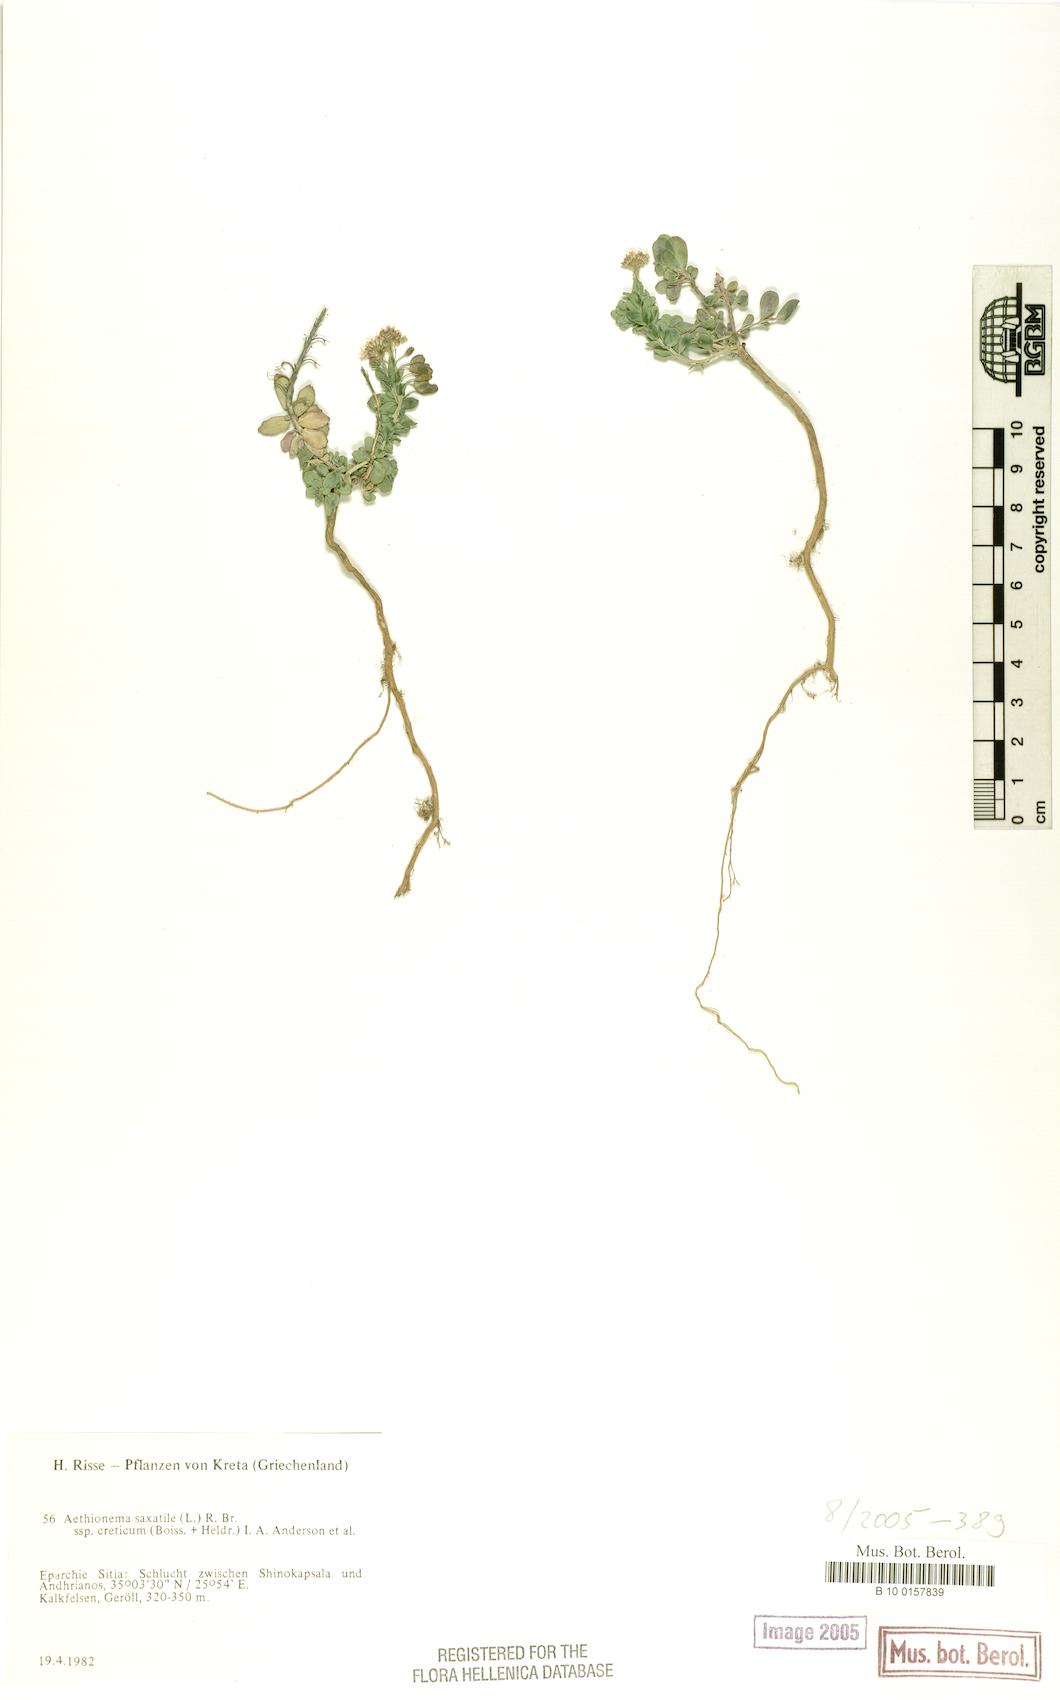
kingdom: Plantae
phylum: Tracheophyta
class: Magnoliopsida
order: Brassicales
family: Brassicaceae
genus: Aethionema
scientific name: Aethionema saxatile
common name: Burnt candytuft
